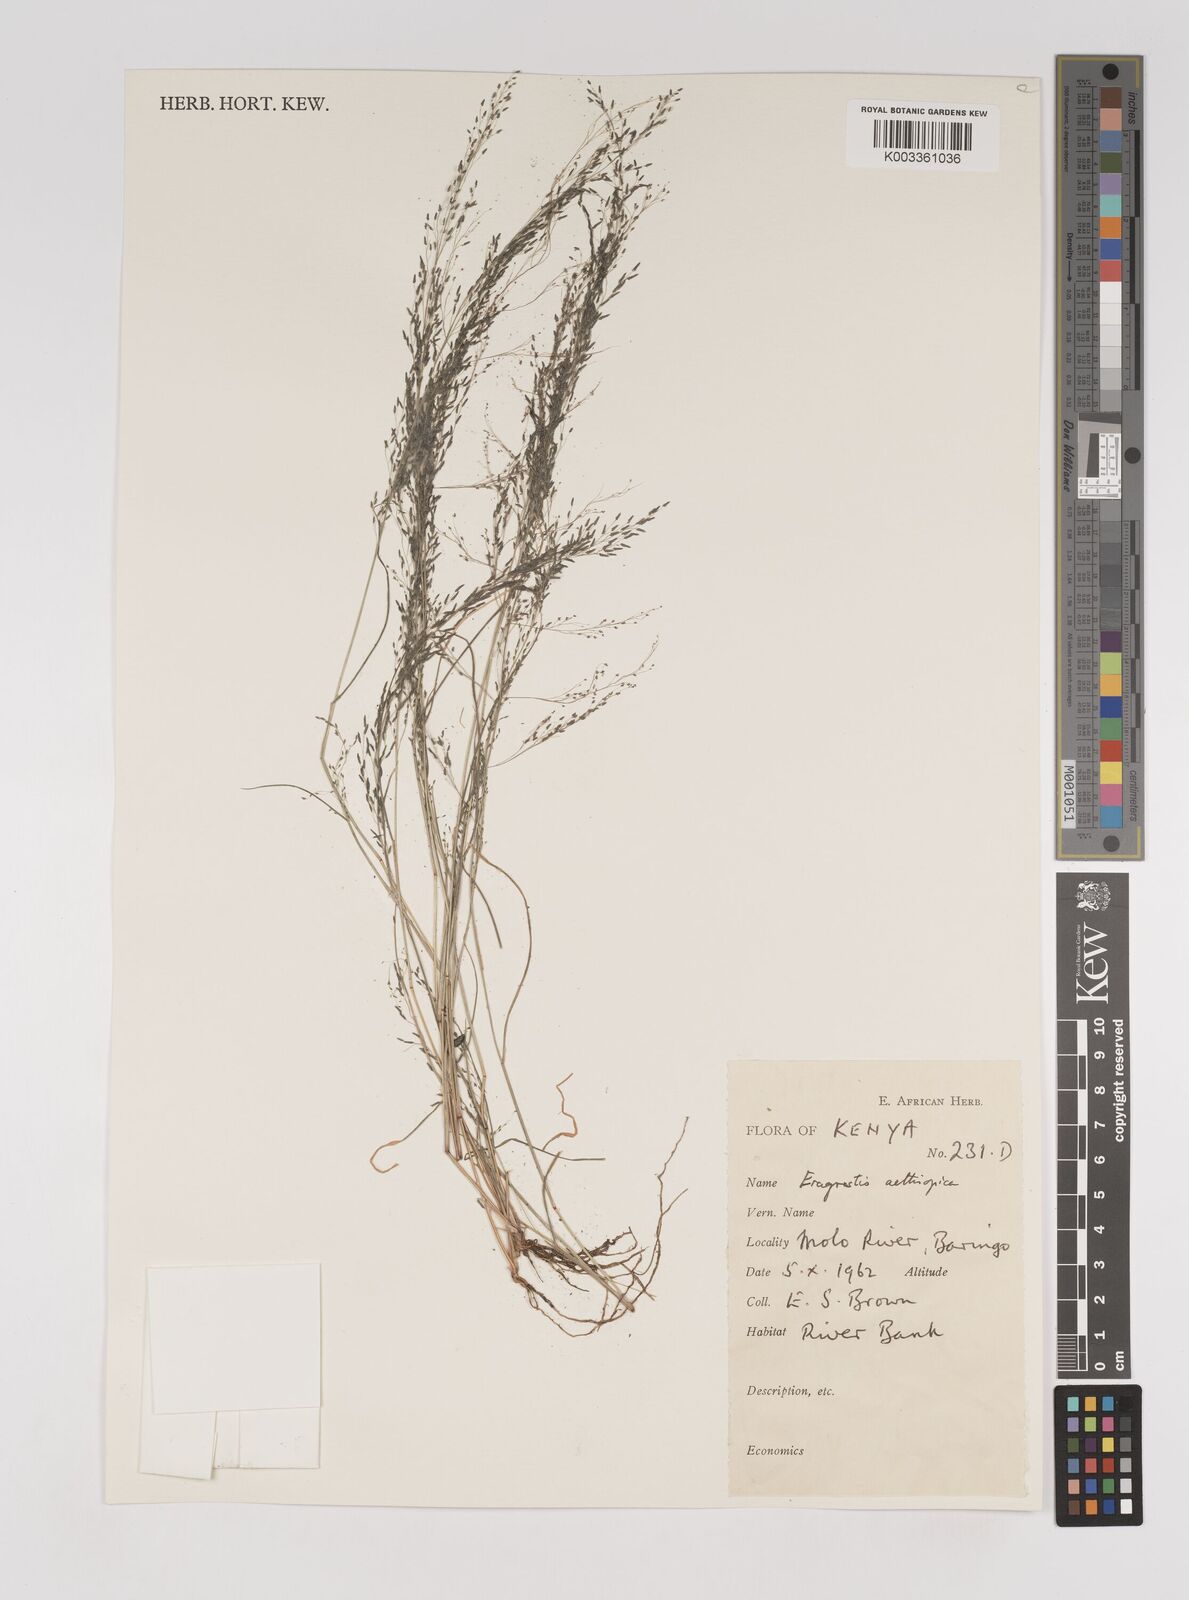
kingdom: Plantae
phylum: Tracheophyta
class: Liliopsida
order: Poales
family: Poaceae
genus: Eragrostis
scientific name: Eragrostis aethiopica
